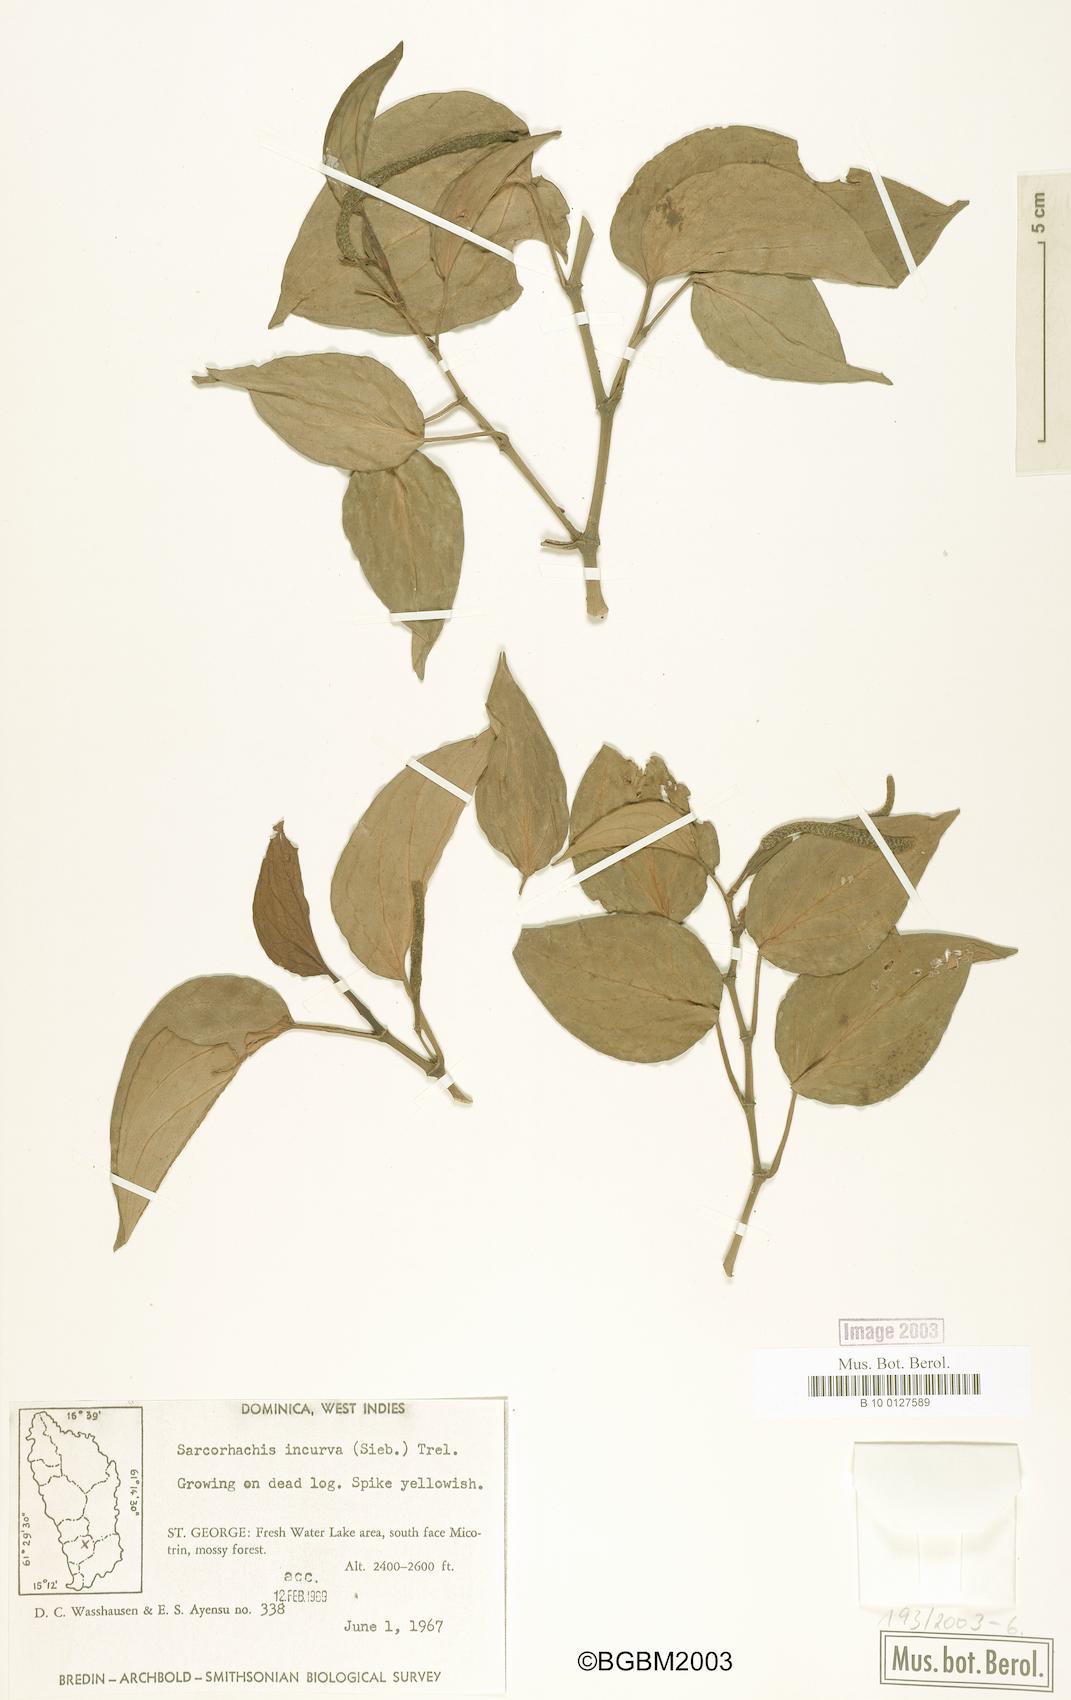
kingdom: Plantae
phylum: Tracheophyta
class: Magnoliopsida
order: Piperales
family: Piperaceae
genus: Manekia
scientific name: Manekia incurva
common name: Wild black-pepper
